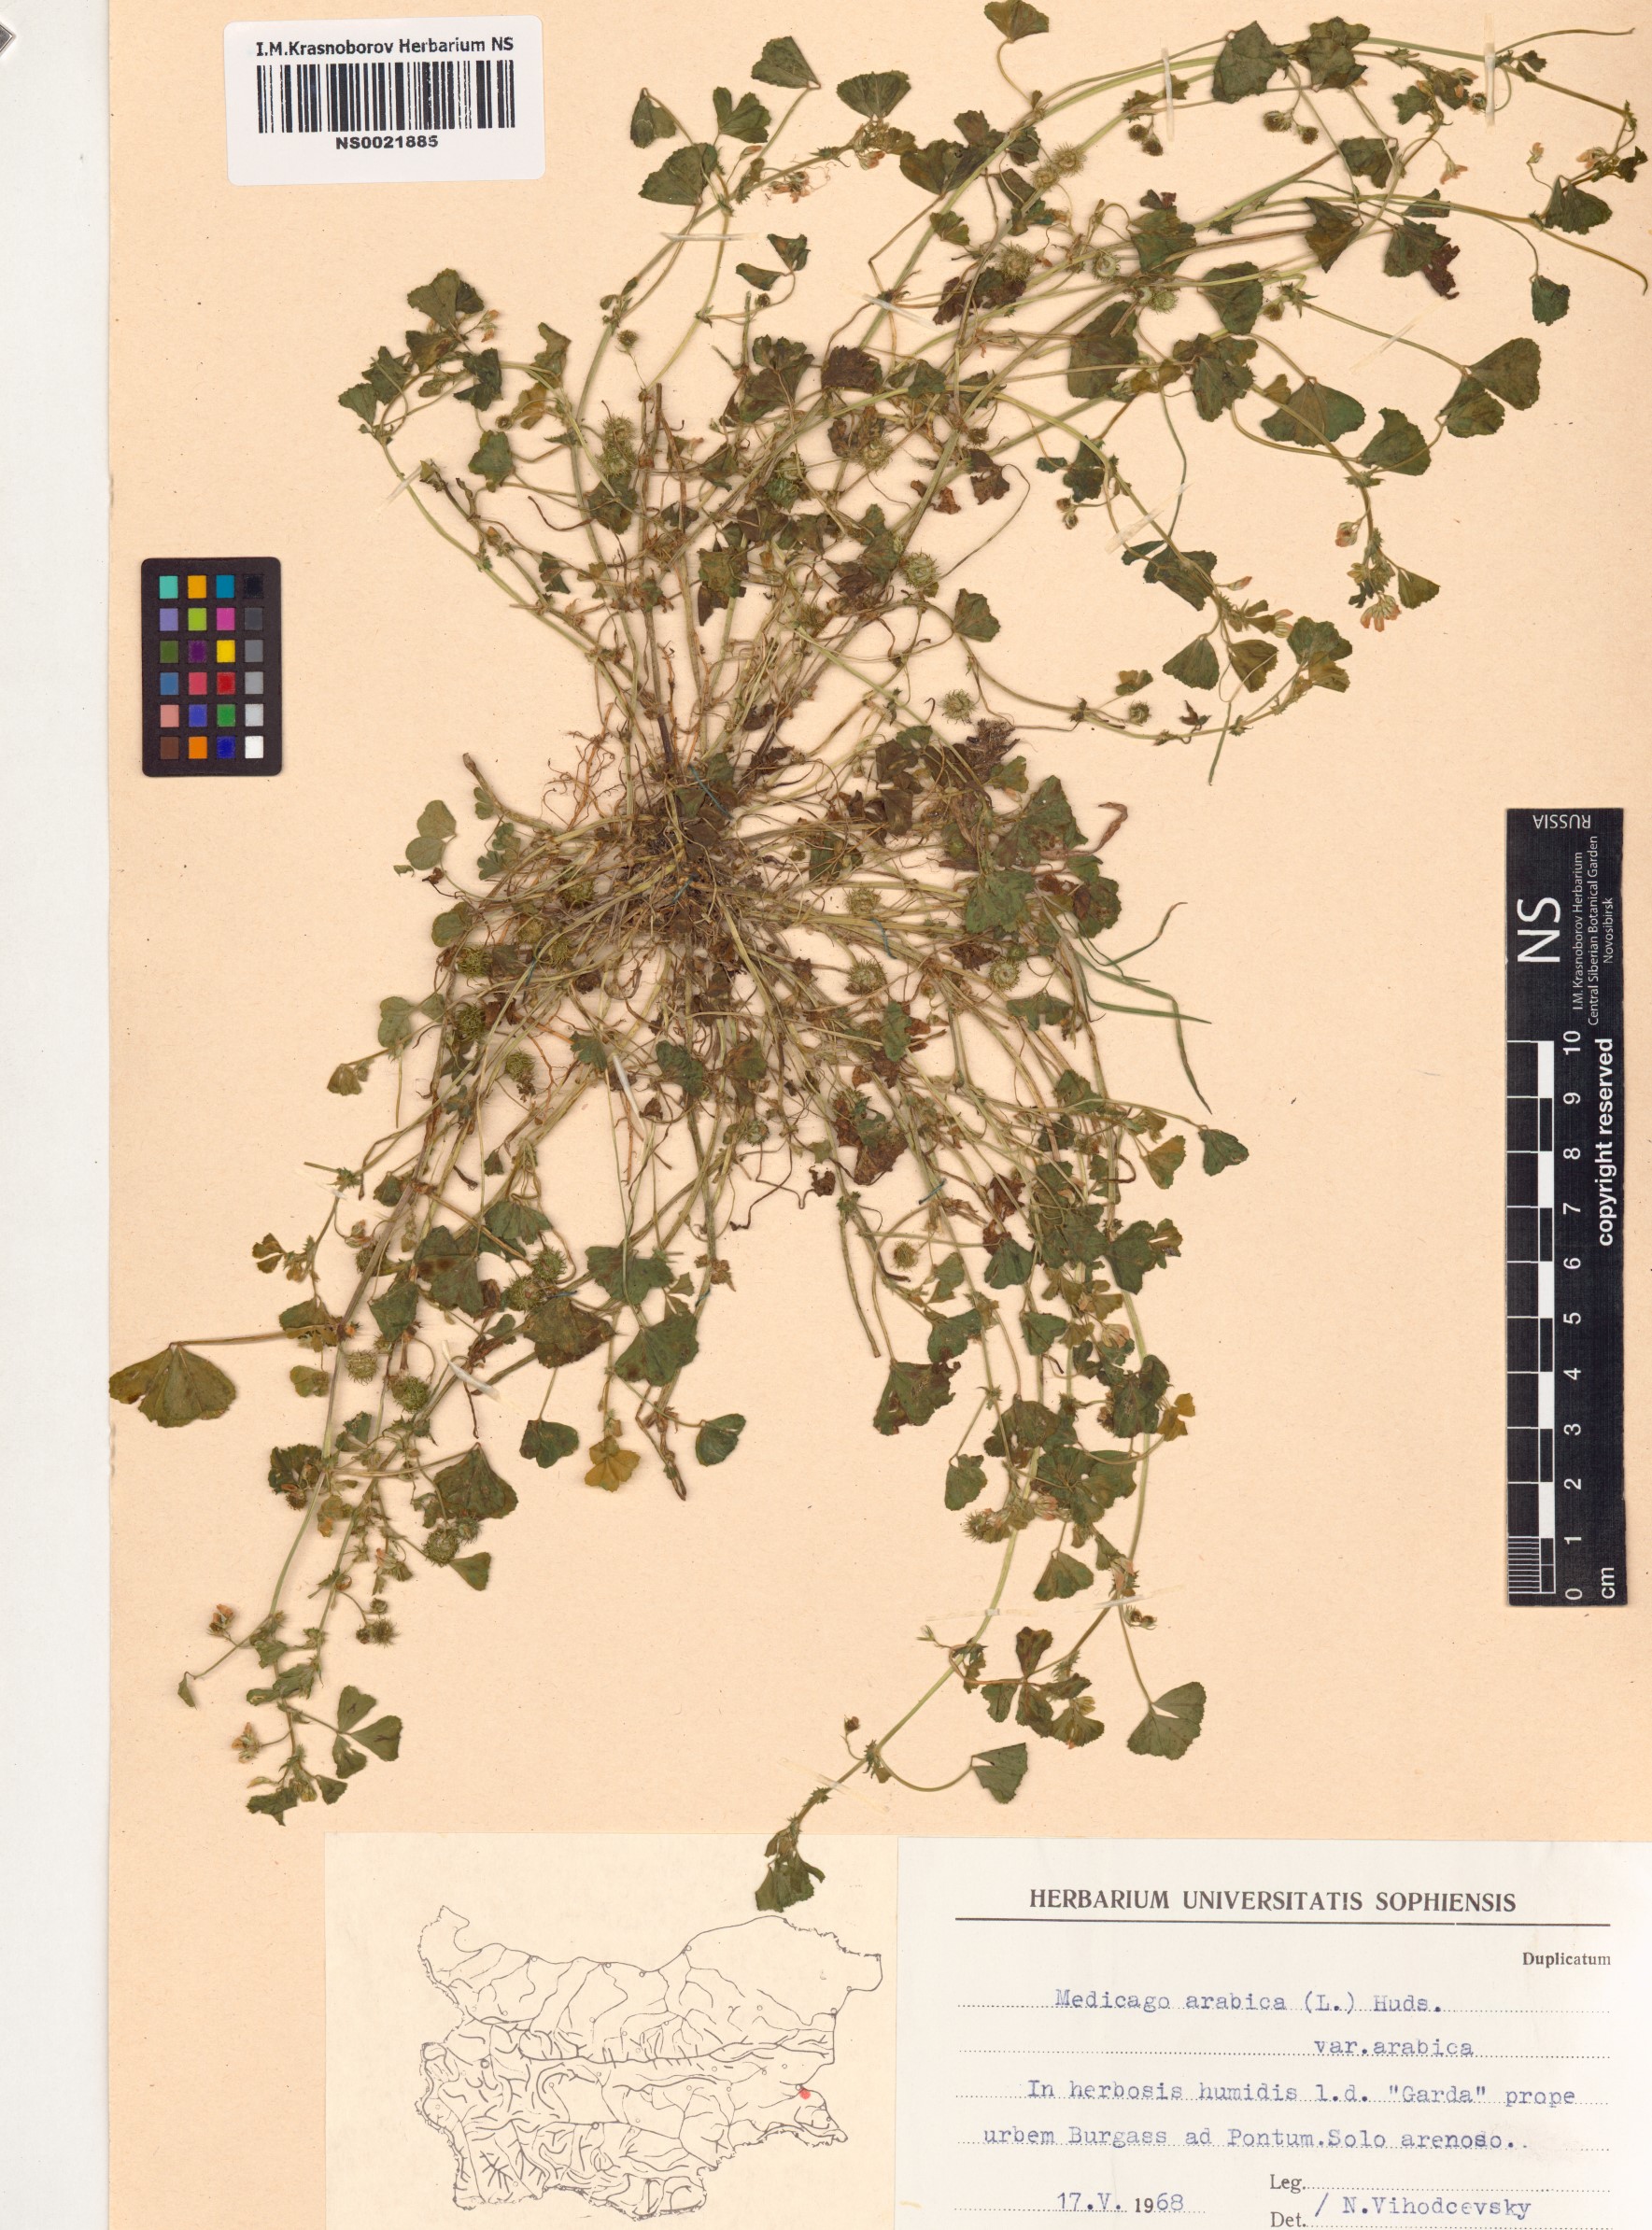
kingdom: Plantae
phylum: Tracheophyta
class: Magnoliopsida
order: Fabales
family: Fabaceae
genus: Medicago
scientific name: Medicago arabica
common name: Spotted medick
